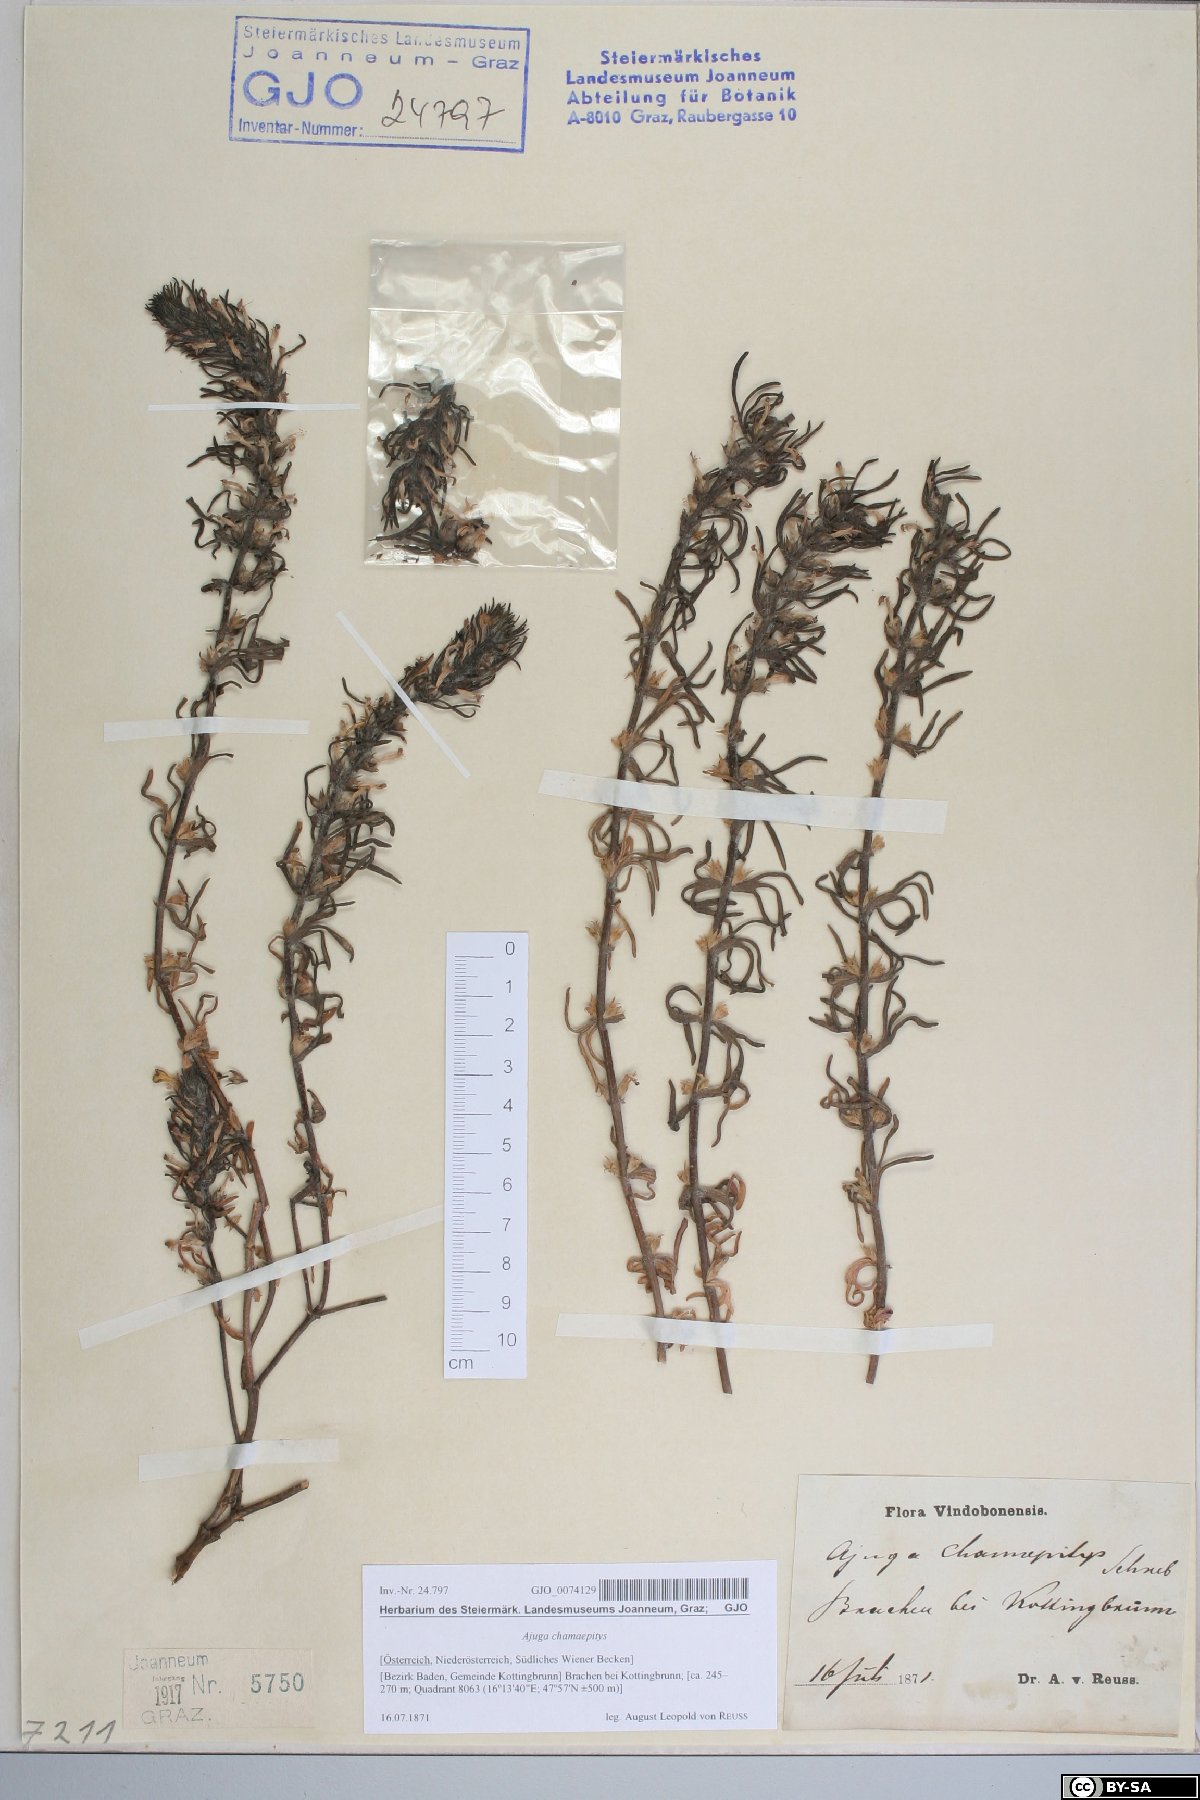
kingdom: Plantae
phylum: Tracheophyta
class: Magnoliopsida
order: Lamiales
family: Lamiaceae
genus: Ajuga
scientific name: Ajuga chamaepitys
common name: Ground-pine
